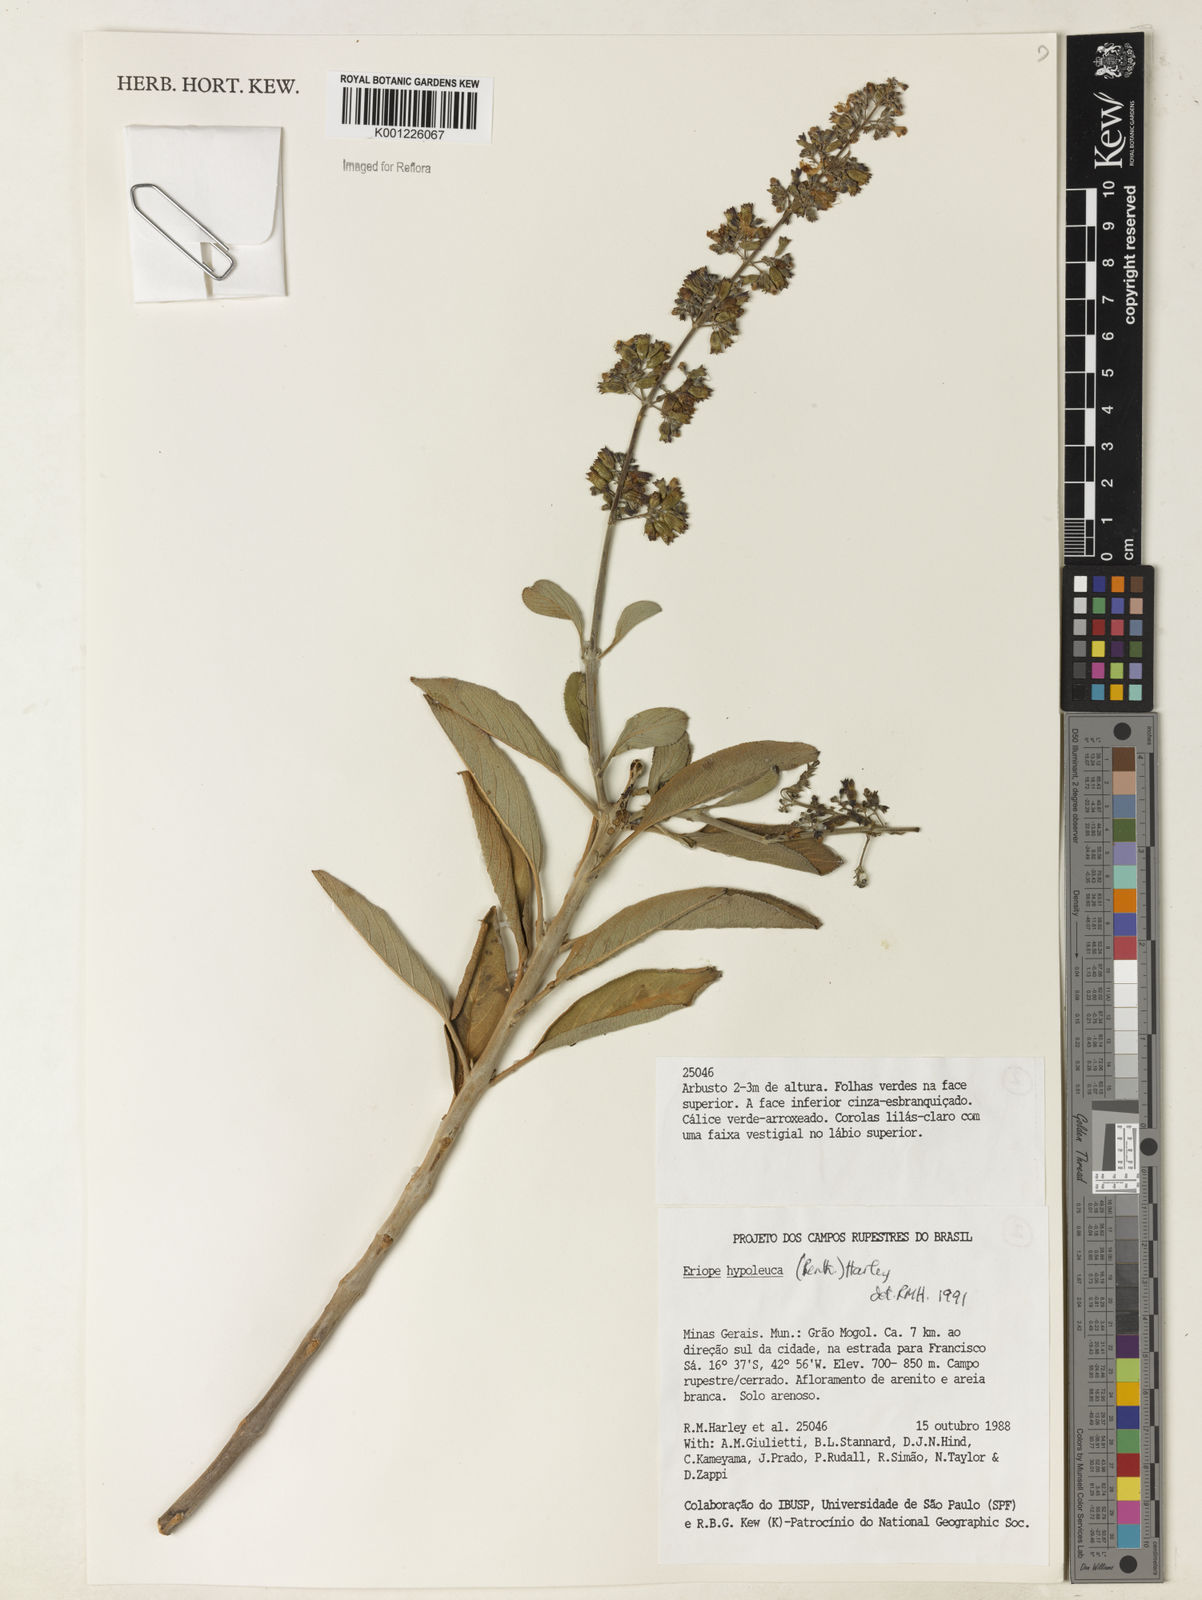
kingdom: Plantae
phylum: Tracheophyta
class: Magnoliopsida
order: Lamiales
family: Lamiaceae
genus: Eriope
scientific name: Eriope hypoleuca
